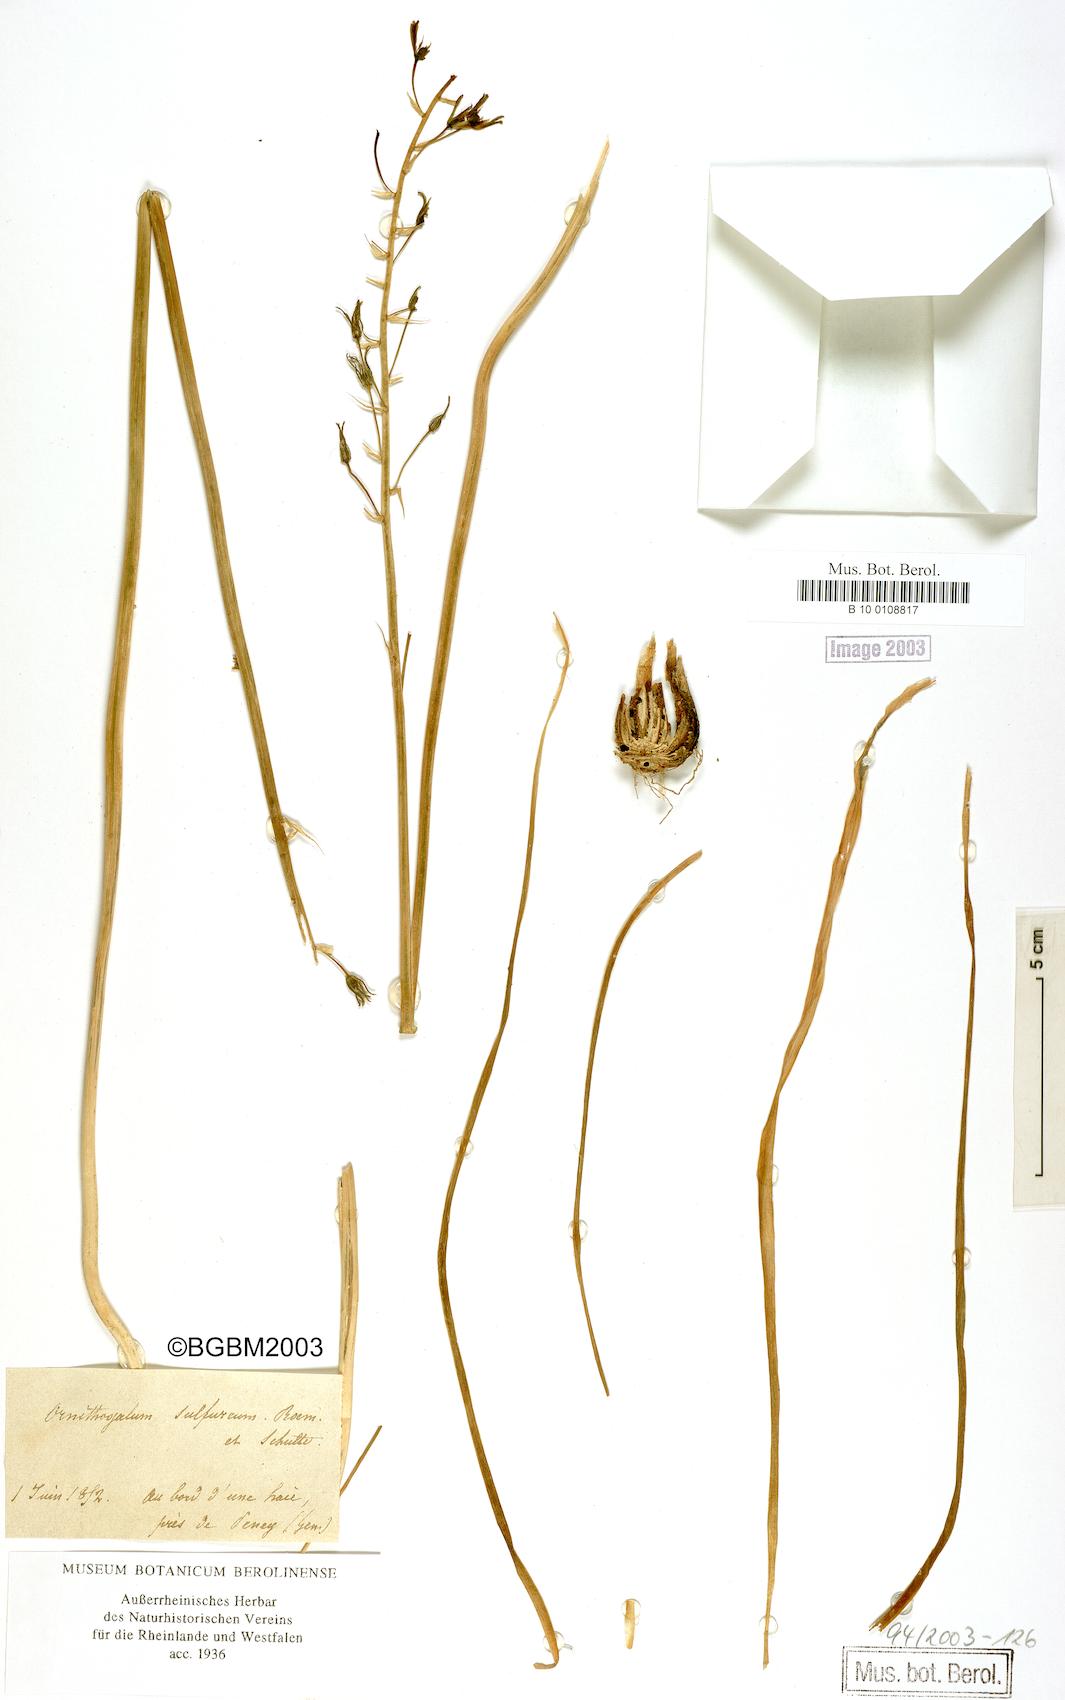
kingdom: Plantae
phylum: Tracheophyta
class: Liliopsida
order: Asparagales
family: Asparagaceae
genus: Ornithogalum
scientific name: Ornithogalum pyrenaicum
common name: Spiked star-of-bethlehem
